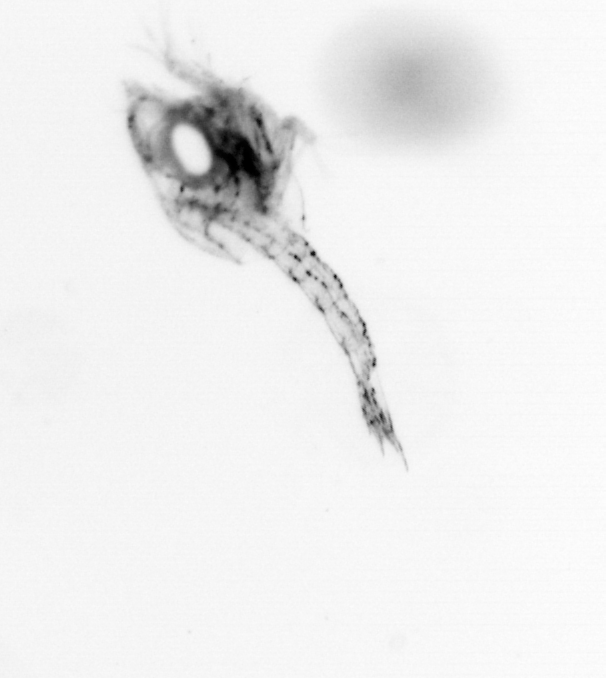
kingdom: Animalia
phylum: Arthropoda
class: Malacostraca
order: Decapoda
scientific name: Decapoda
